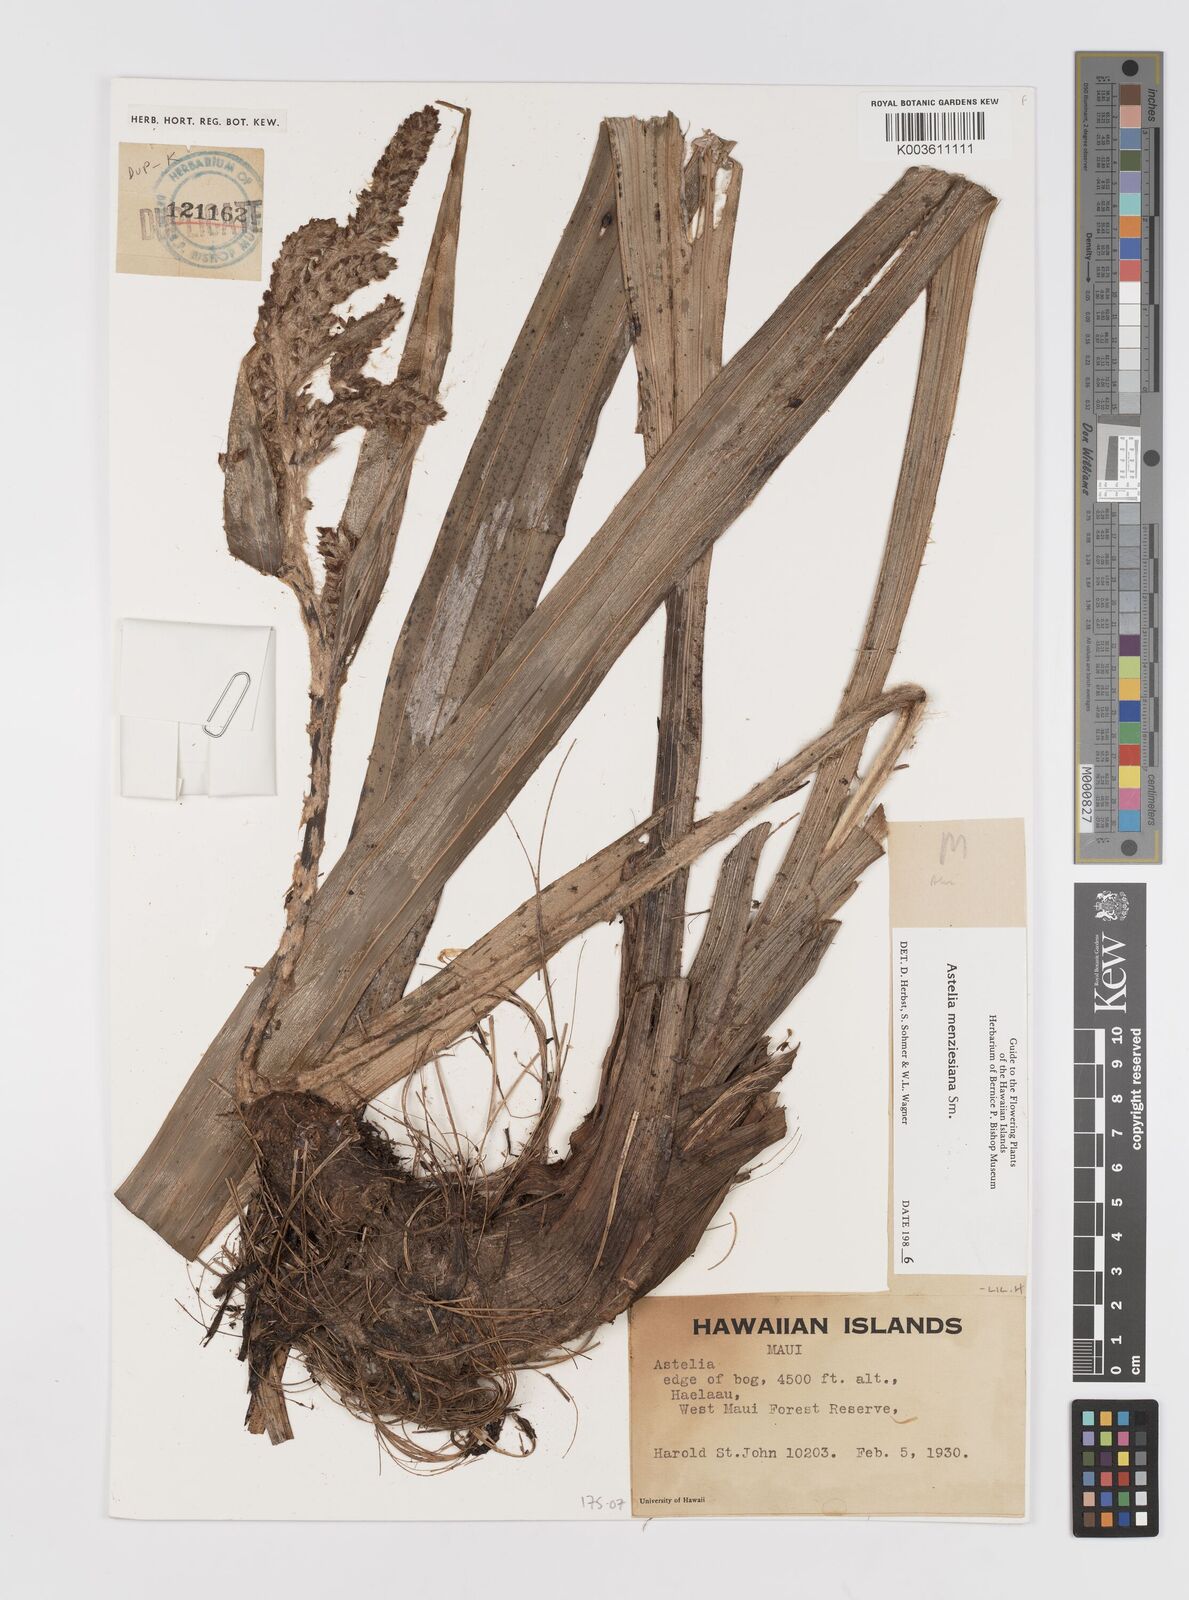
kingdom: Plantae
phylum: Tracheophyta
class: Liliopsida
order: Asparagales
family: Asteliaceae
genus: Astelia
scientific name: Astelia menziesiana
